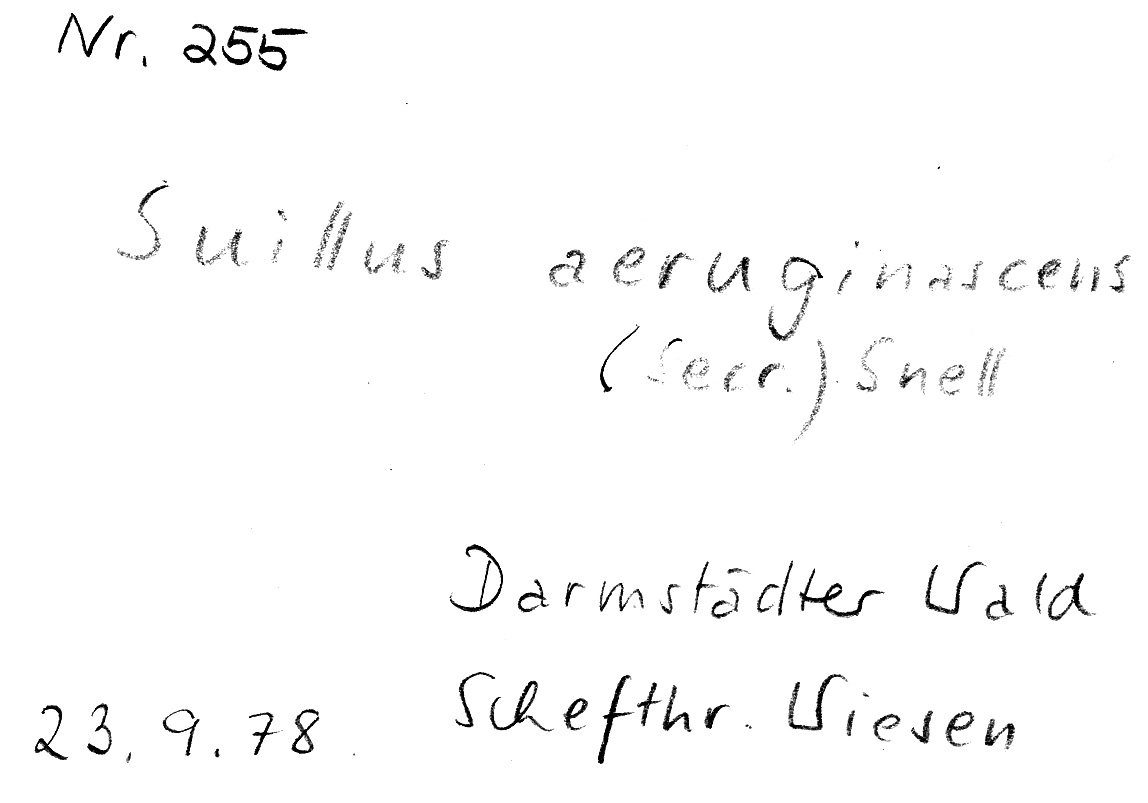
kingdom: Fungi
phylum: Basidiomycota
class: Agaricomycetes
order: Boletales
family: Suillaceae
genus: Suillus
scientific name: Suillus viscidus
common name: Sticky bolete
